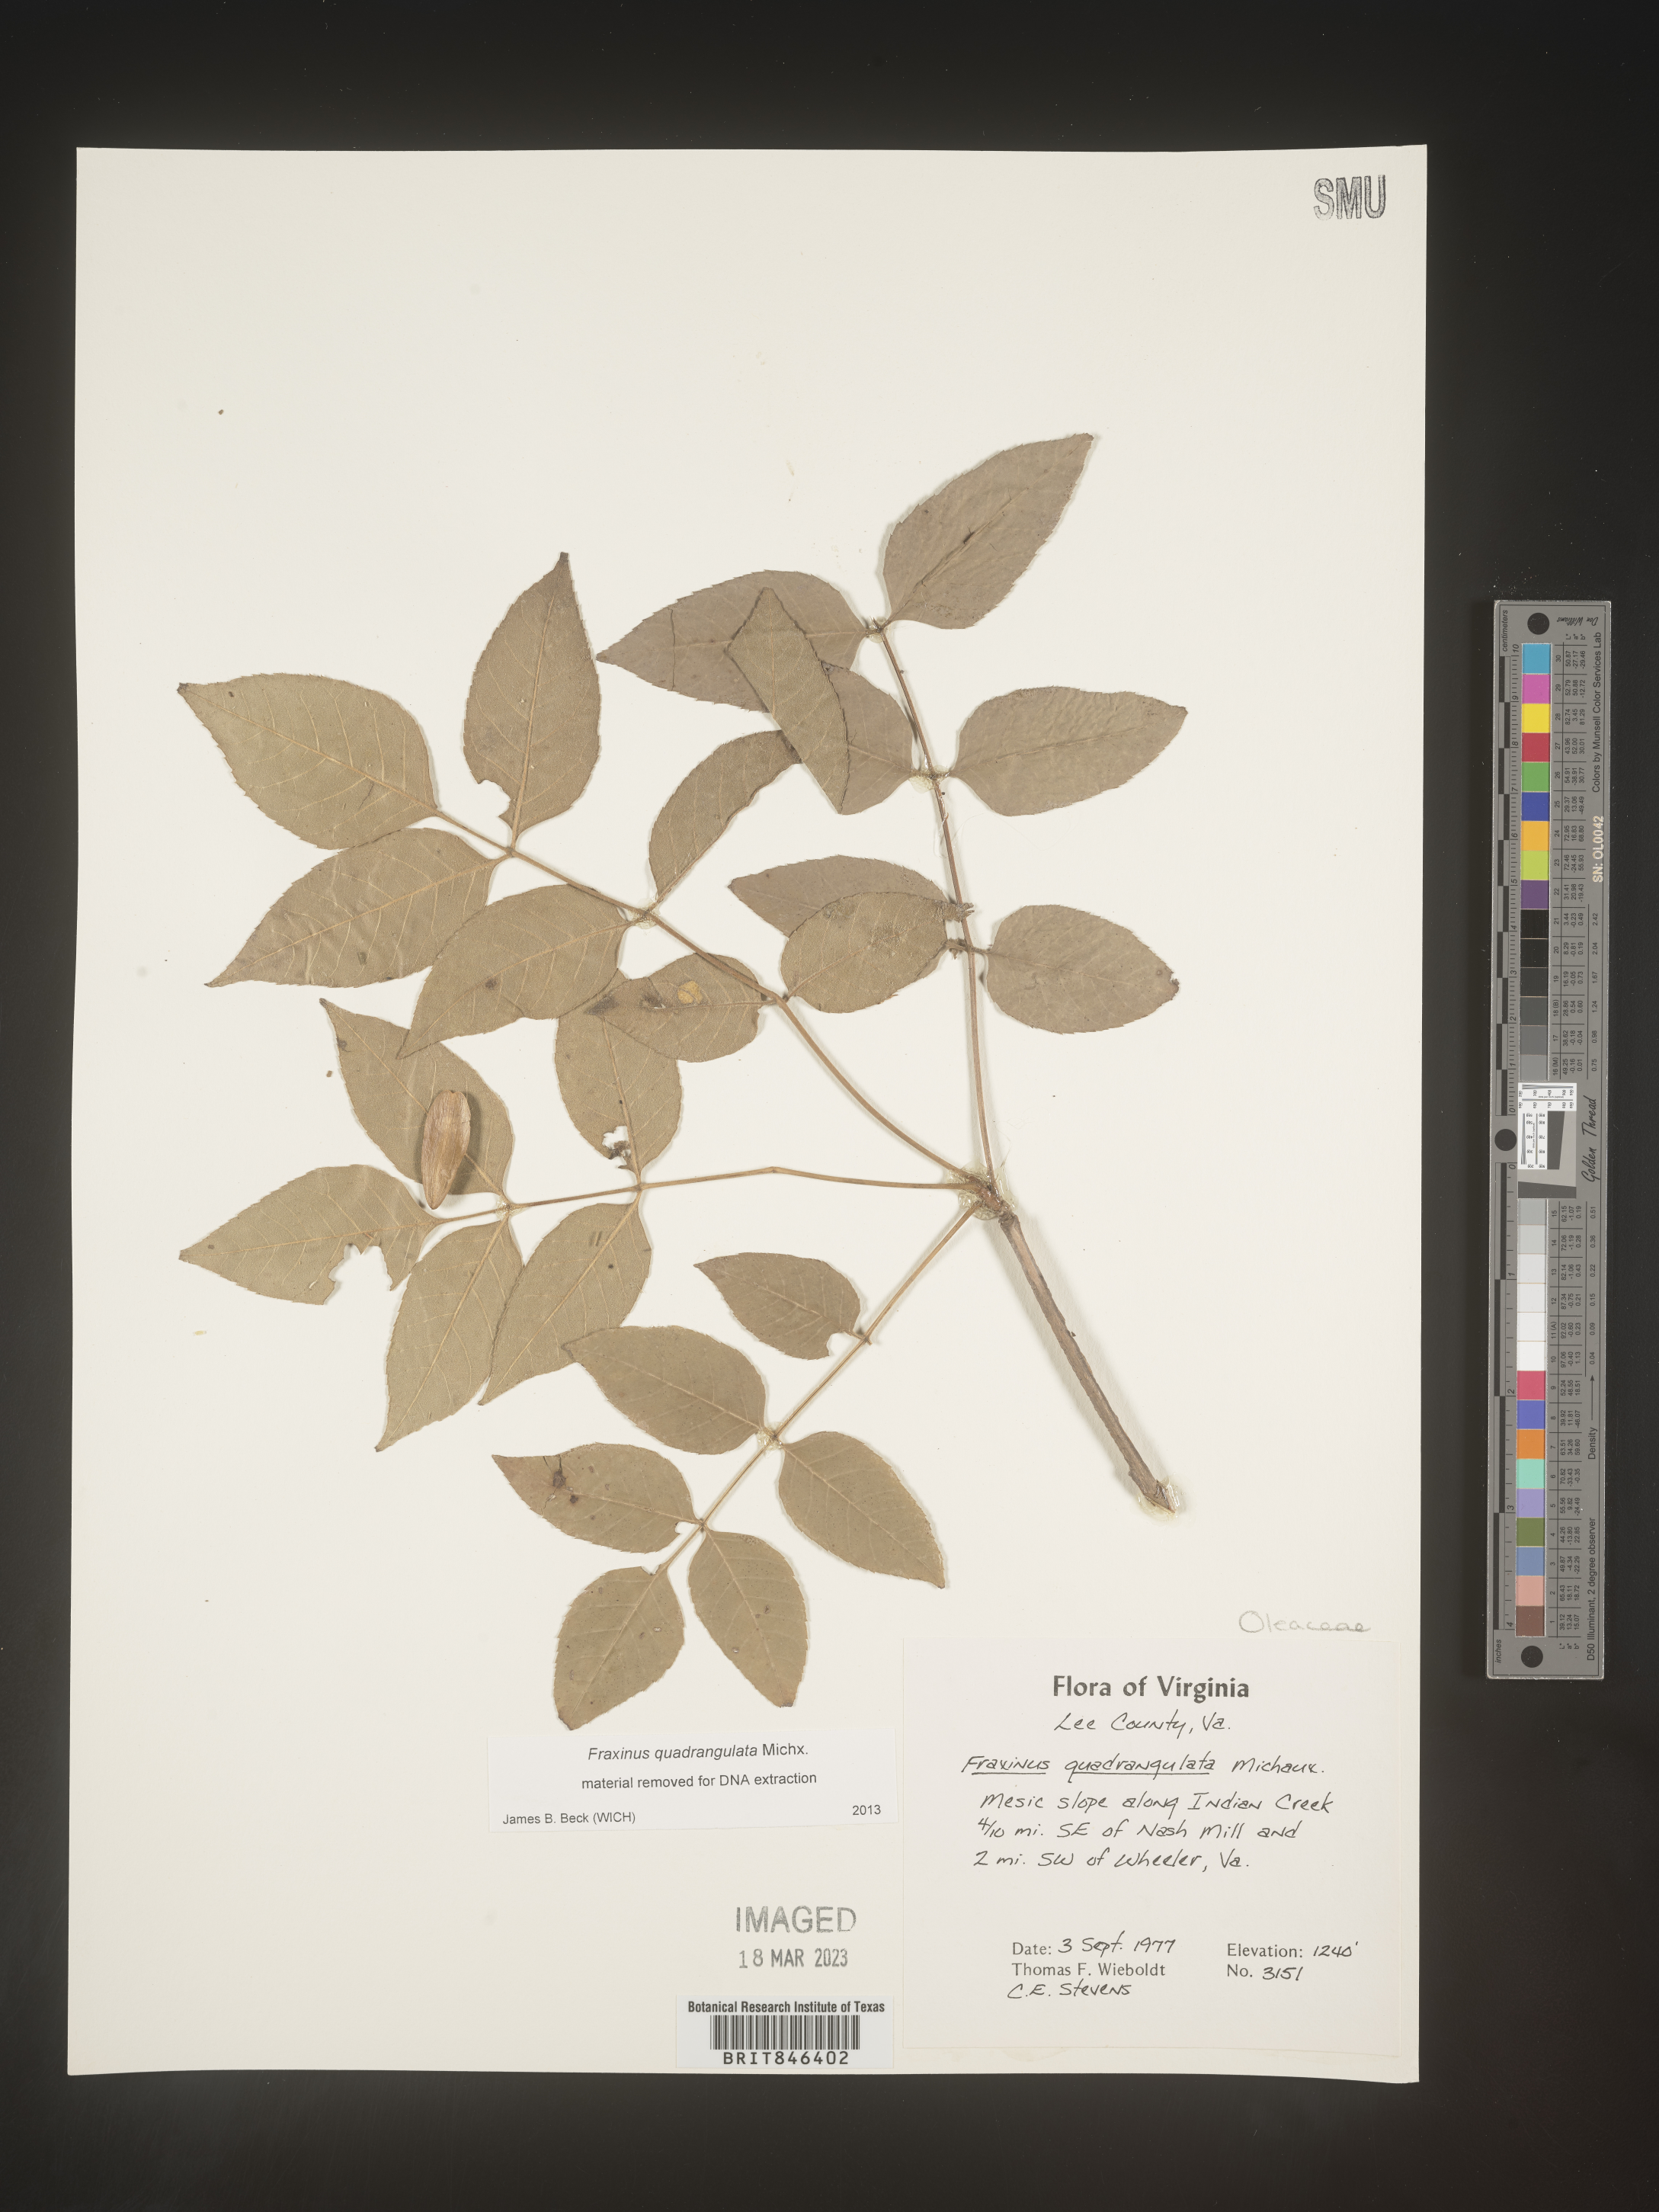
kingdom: Plantae
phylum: Tracheophyta
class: Magnoliopsida
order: Lamiales
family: Oleaceae
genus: Fraxinus
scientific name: Fraxinus quadrangulata
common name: Blue ash
